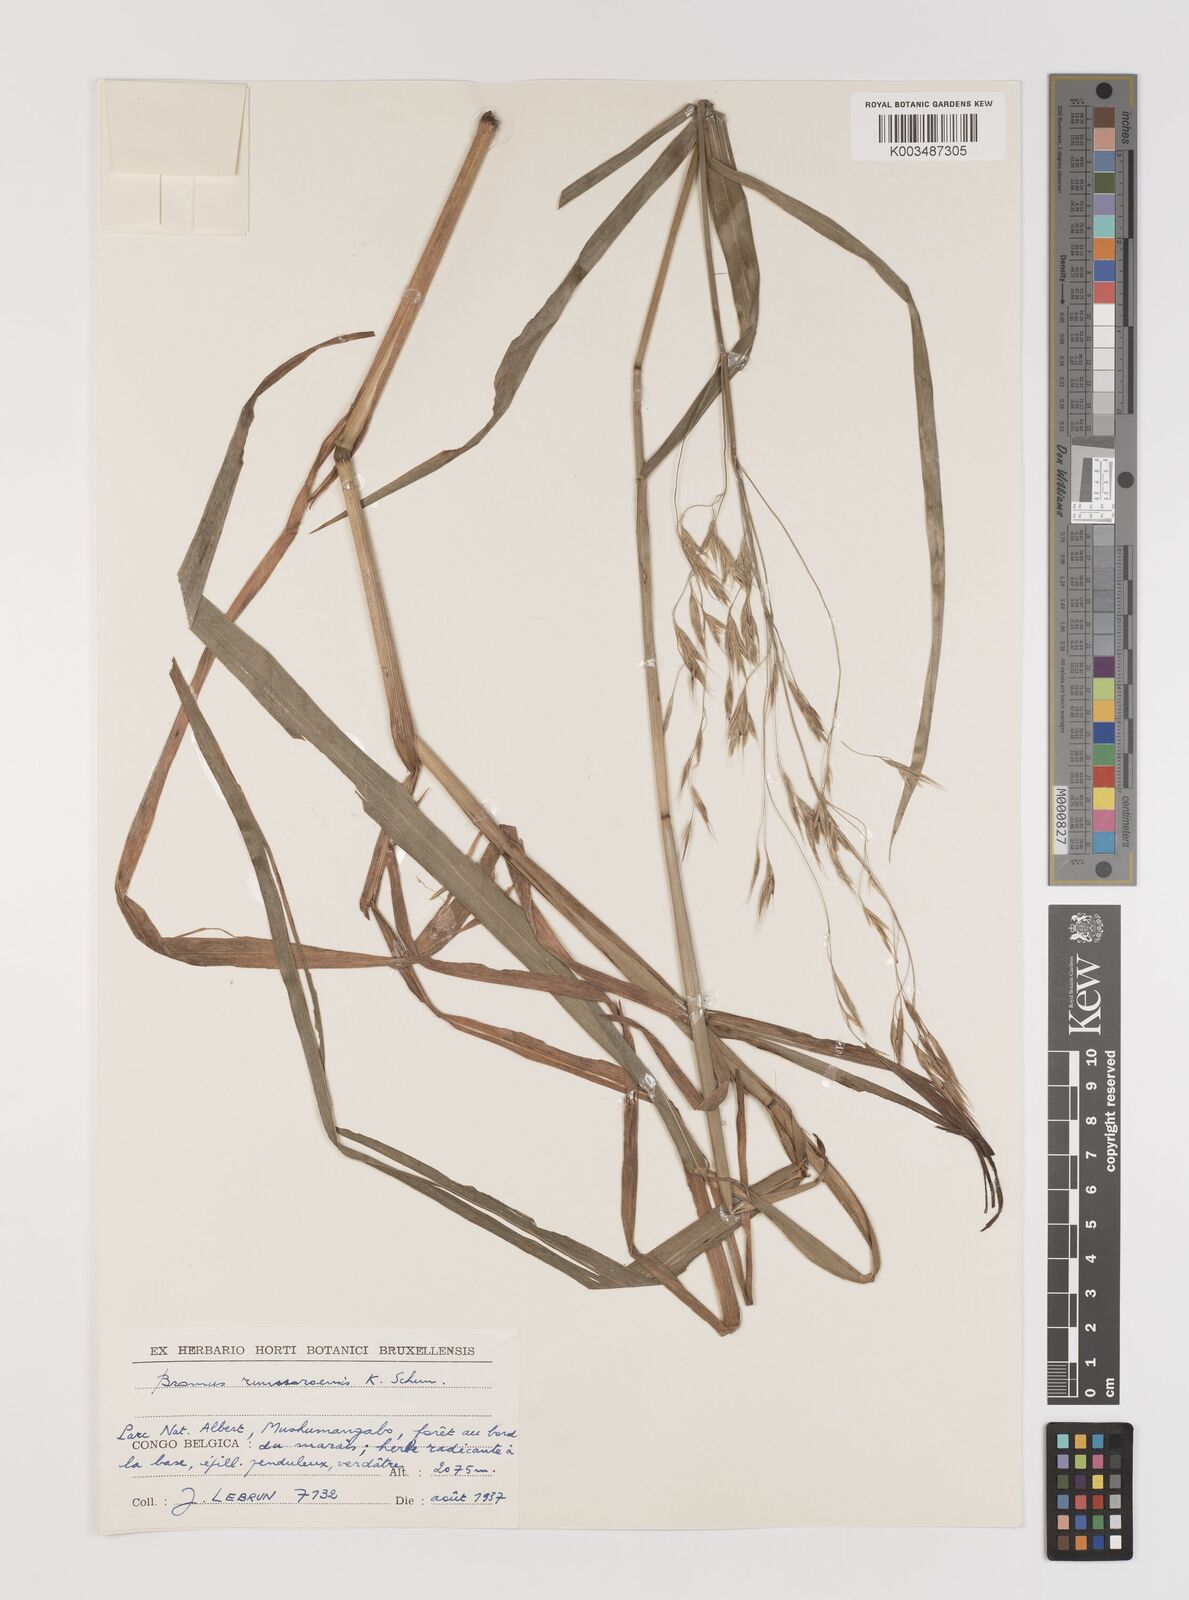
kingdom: Plantae
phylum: Tracheophyta
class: Liliopsida
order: Poales
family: Poaceae
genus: Bromus
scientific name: Bromus leptoclados
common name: Mountain bromegrass
